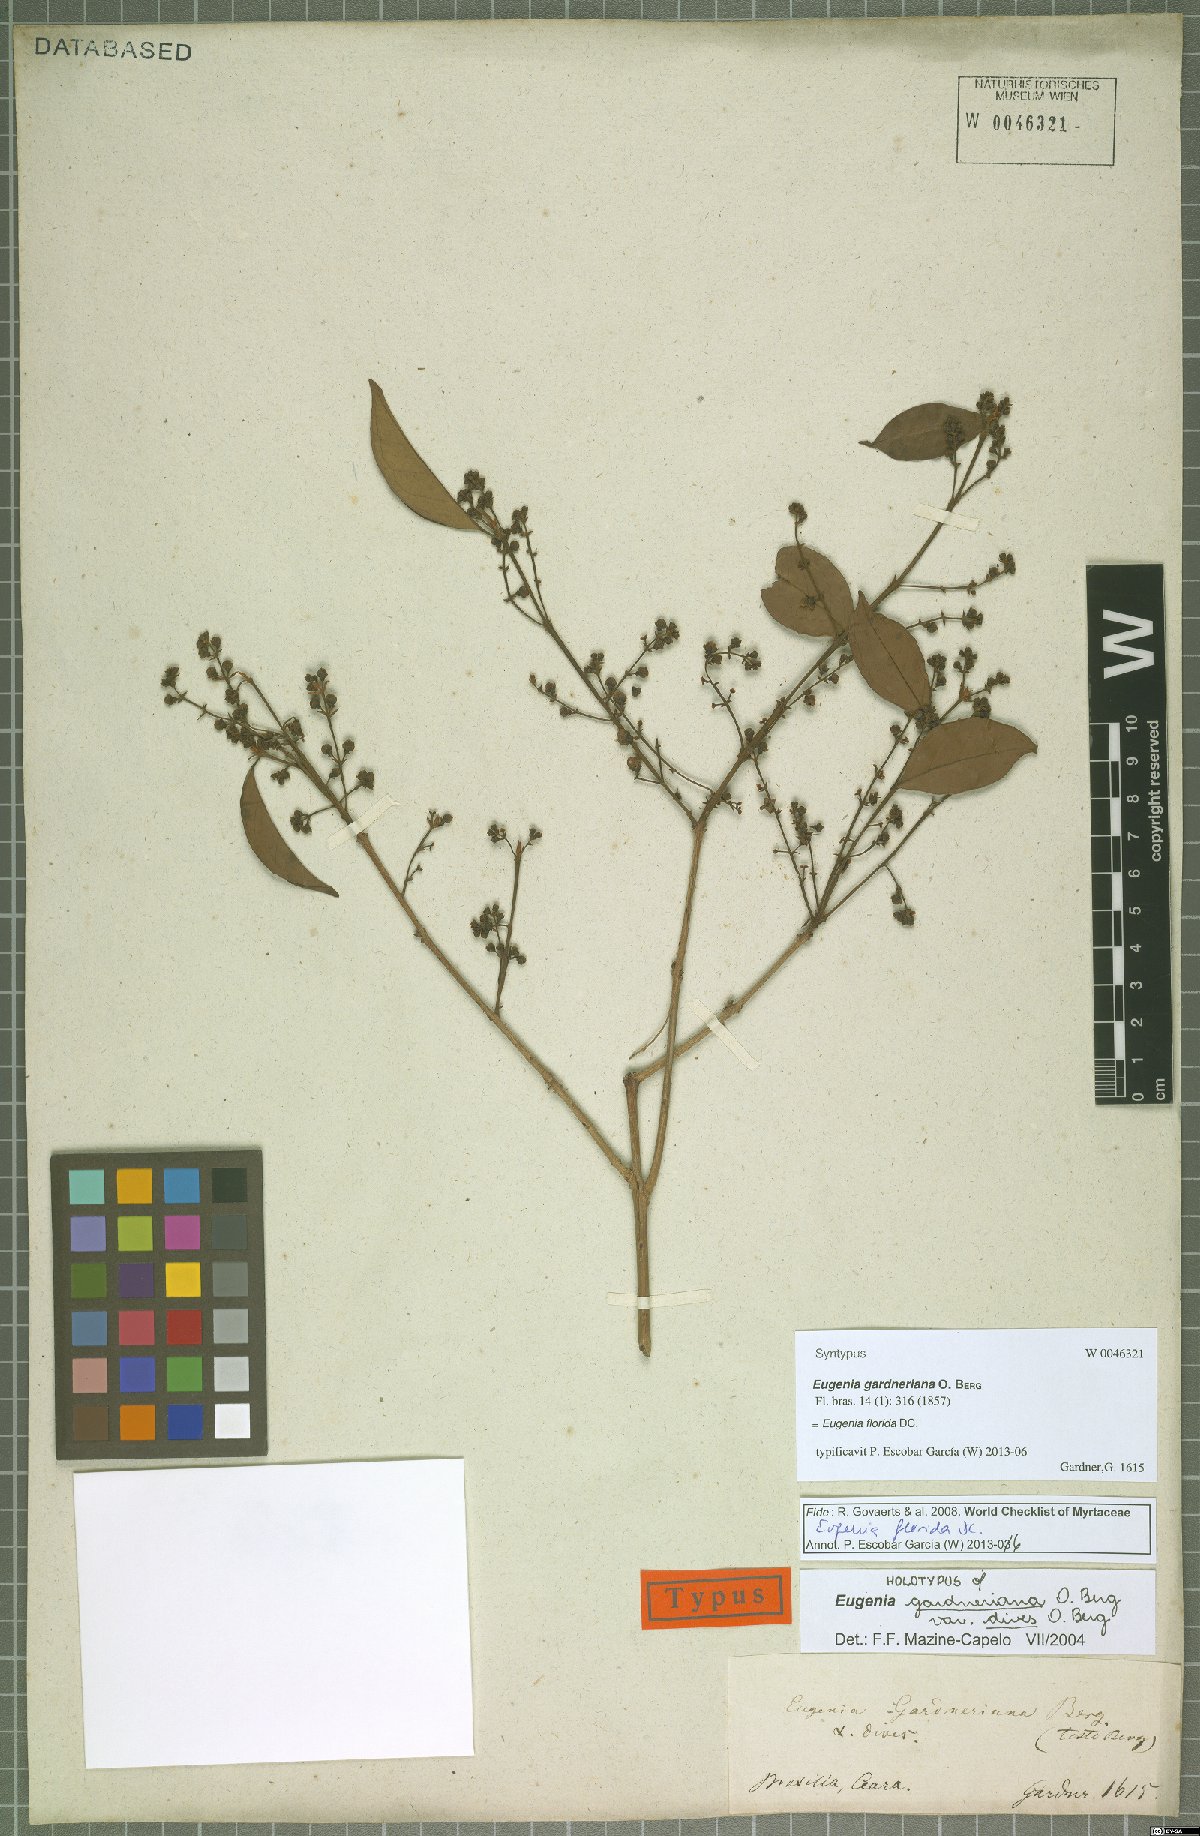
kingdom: Plantae
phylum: Tracheophyta
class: Magnoliopsida
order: Myrtales
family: Myrtaceae
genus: Eugenia
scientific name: Eugenia florida
